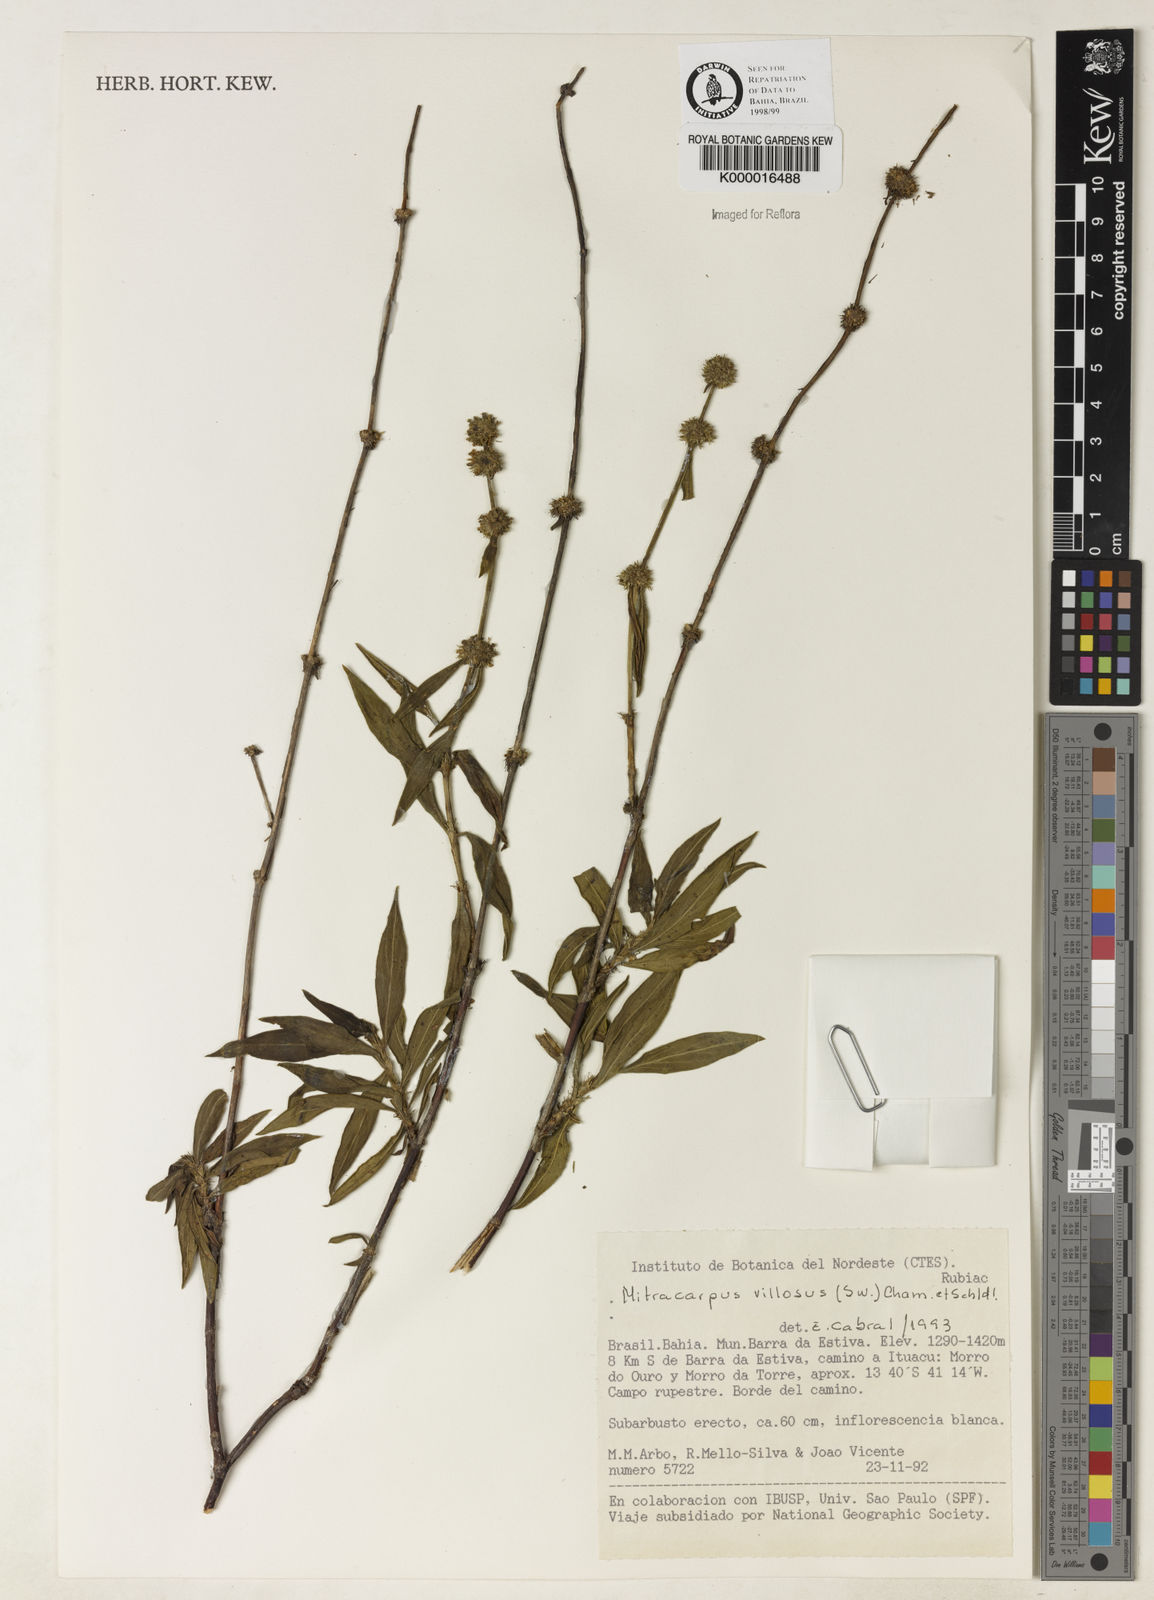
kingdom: Plantae
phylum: Tracheophyta
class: Magnoliopsida
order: Gentianales
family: Rubiaceae
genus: Mitracarpus
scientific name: Mitracarpus
